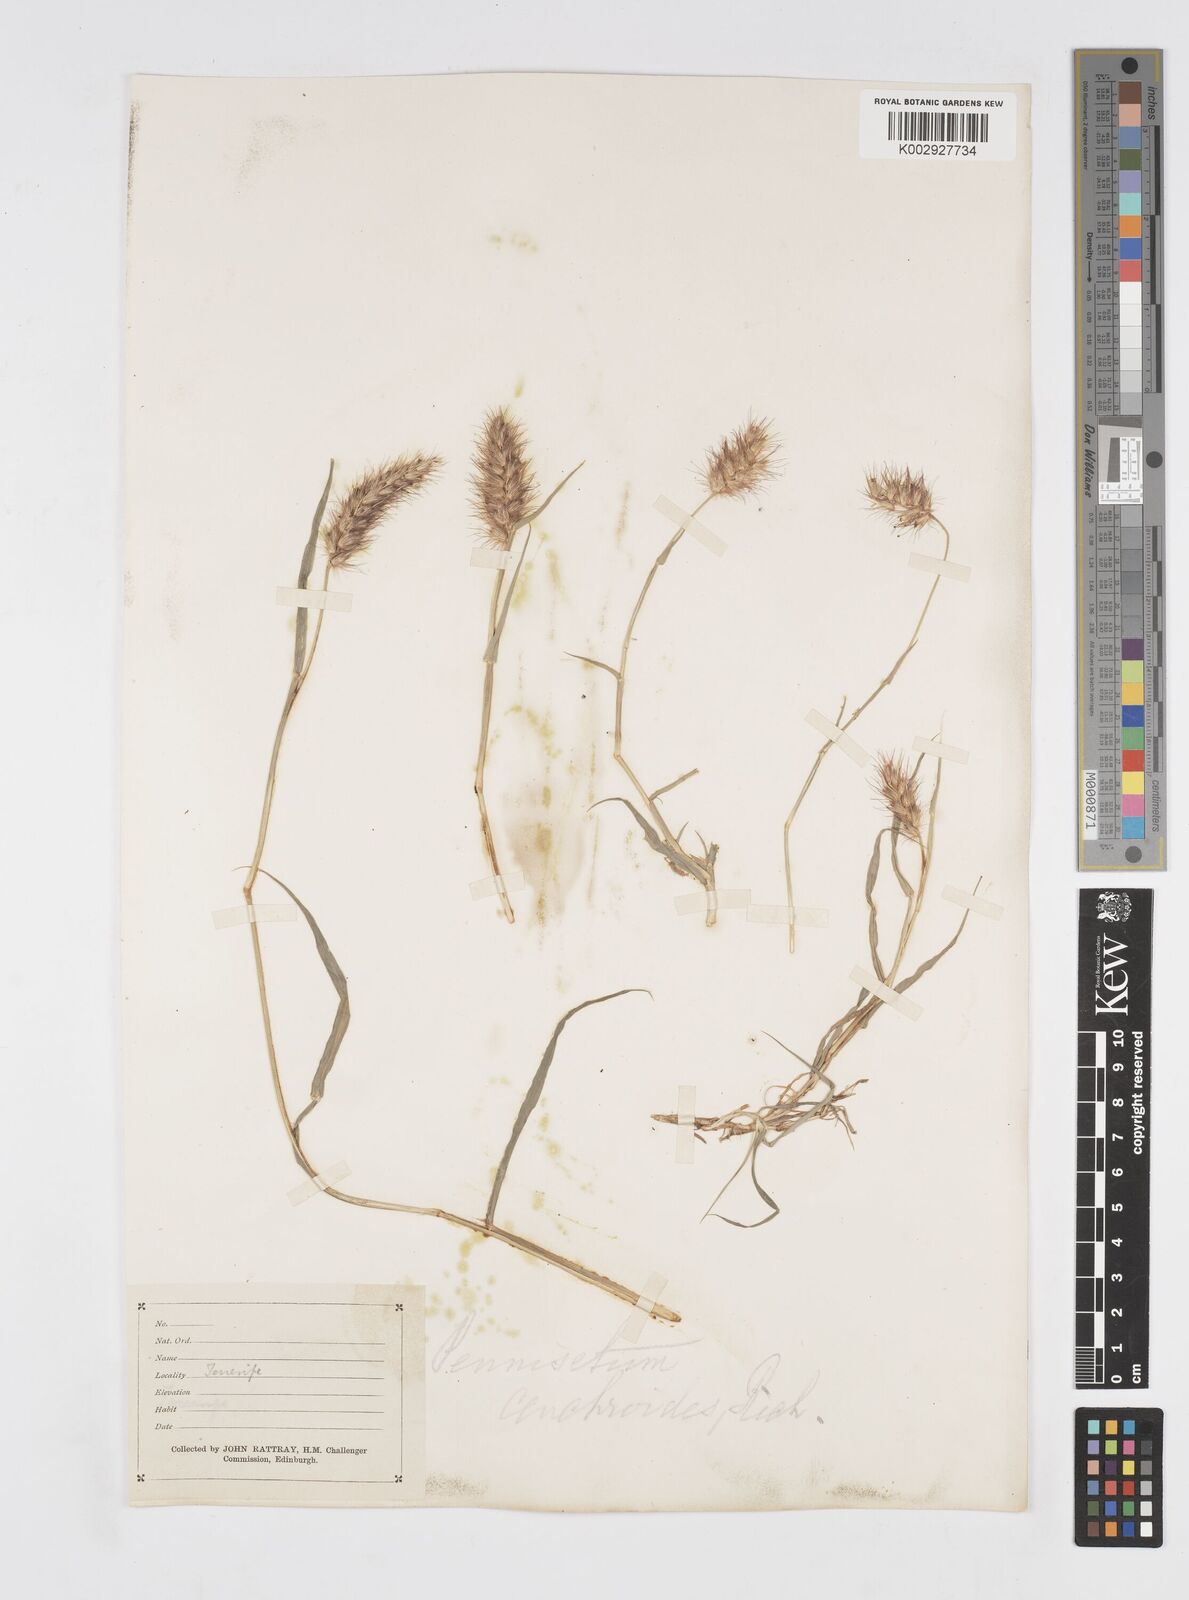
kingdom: Plantae
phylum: Tracheophyta
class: Liliopsida
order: Poales
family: Poaceae
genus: Cenchrus
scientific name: Cenchrus ciliaris
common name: Buffelgrass
